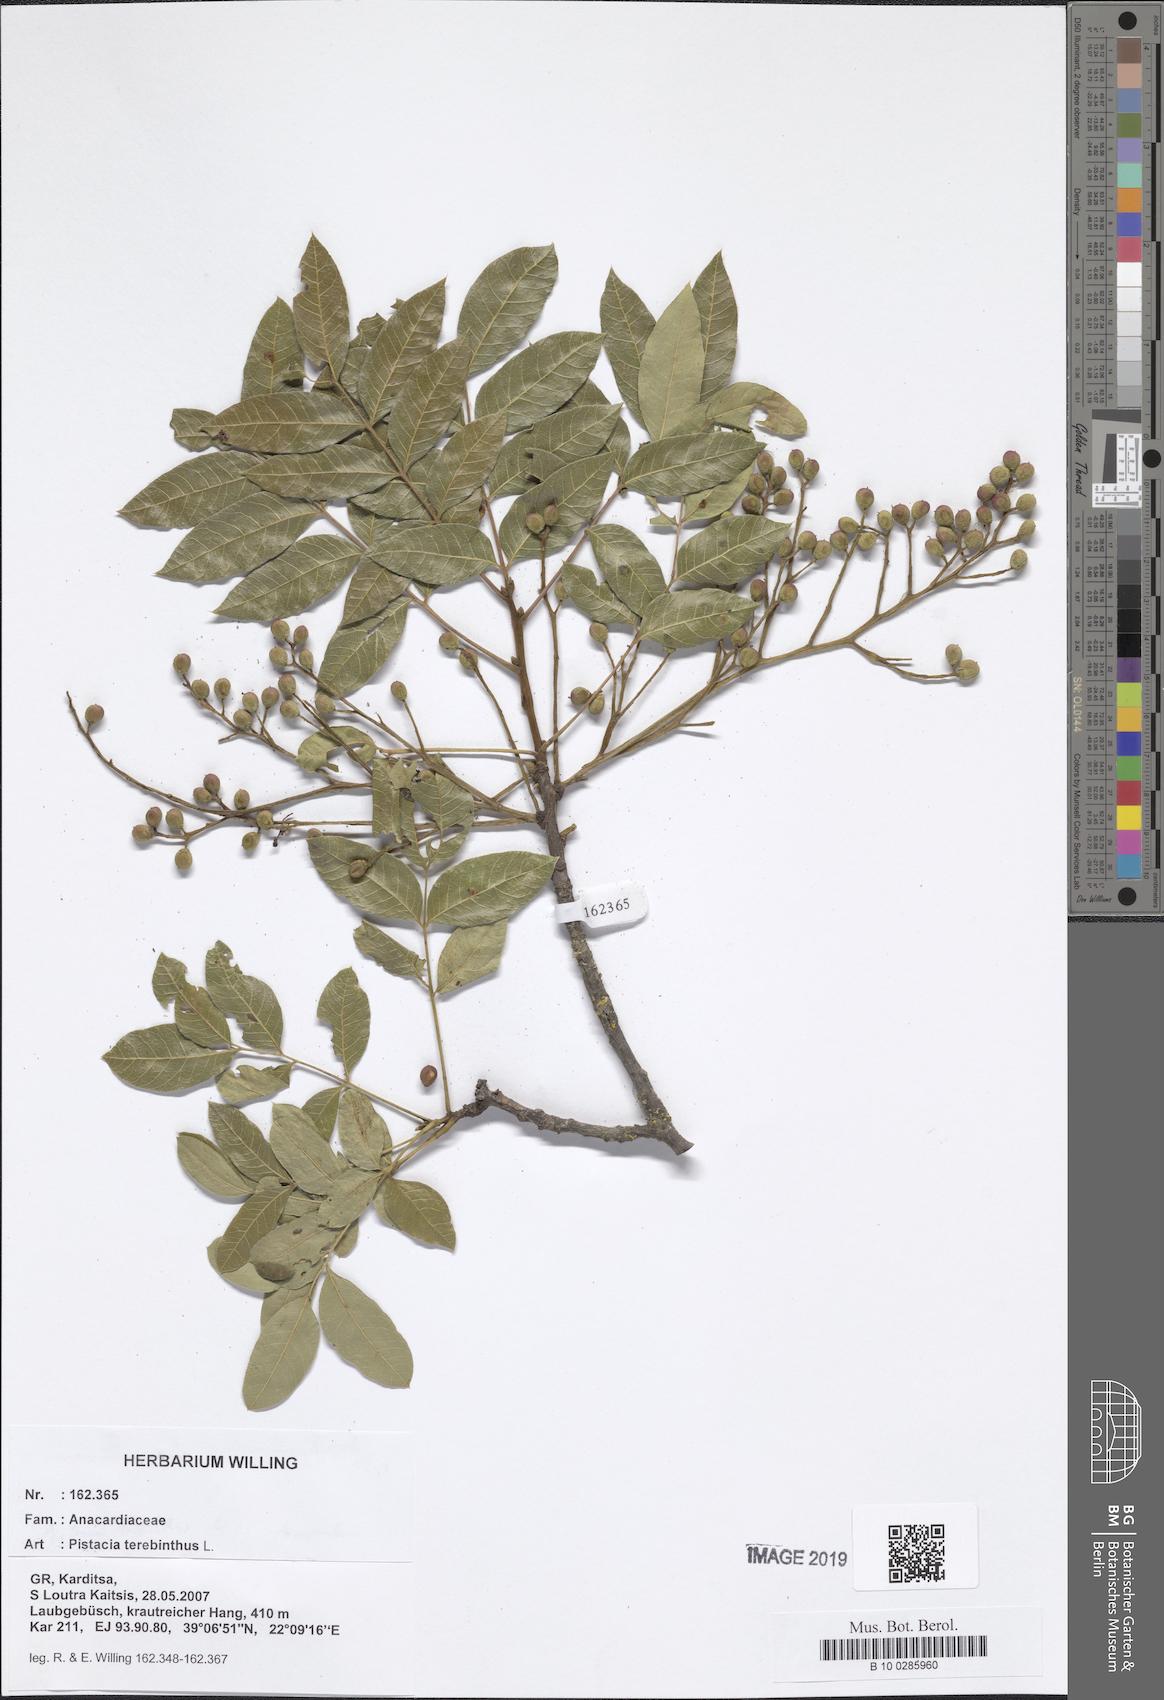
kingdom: Plantae
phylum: Tracheophyta
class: Magnoliopsida
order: Sapindales
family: Anacardiaceae
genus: Pistacia
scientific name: Pistacia terebinthus
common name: Terebinth
